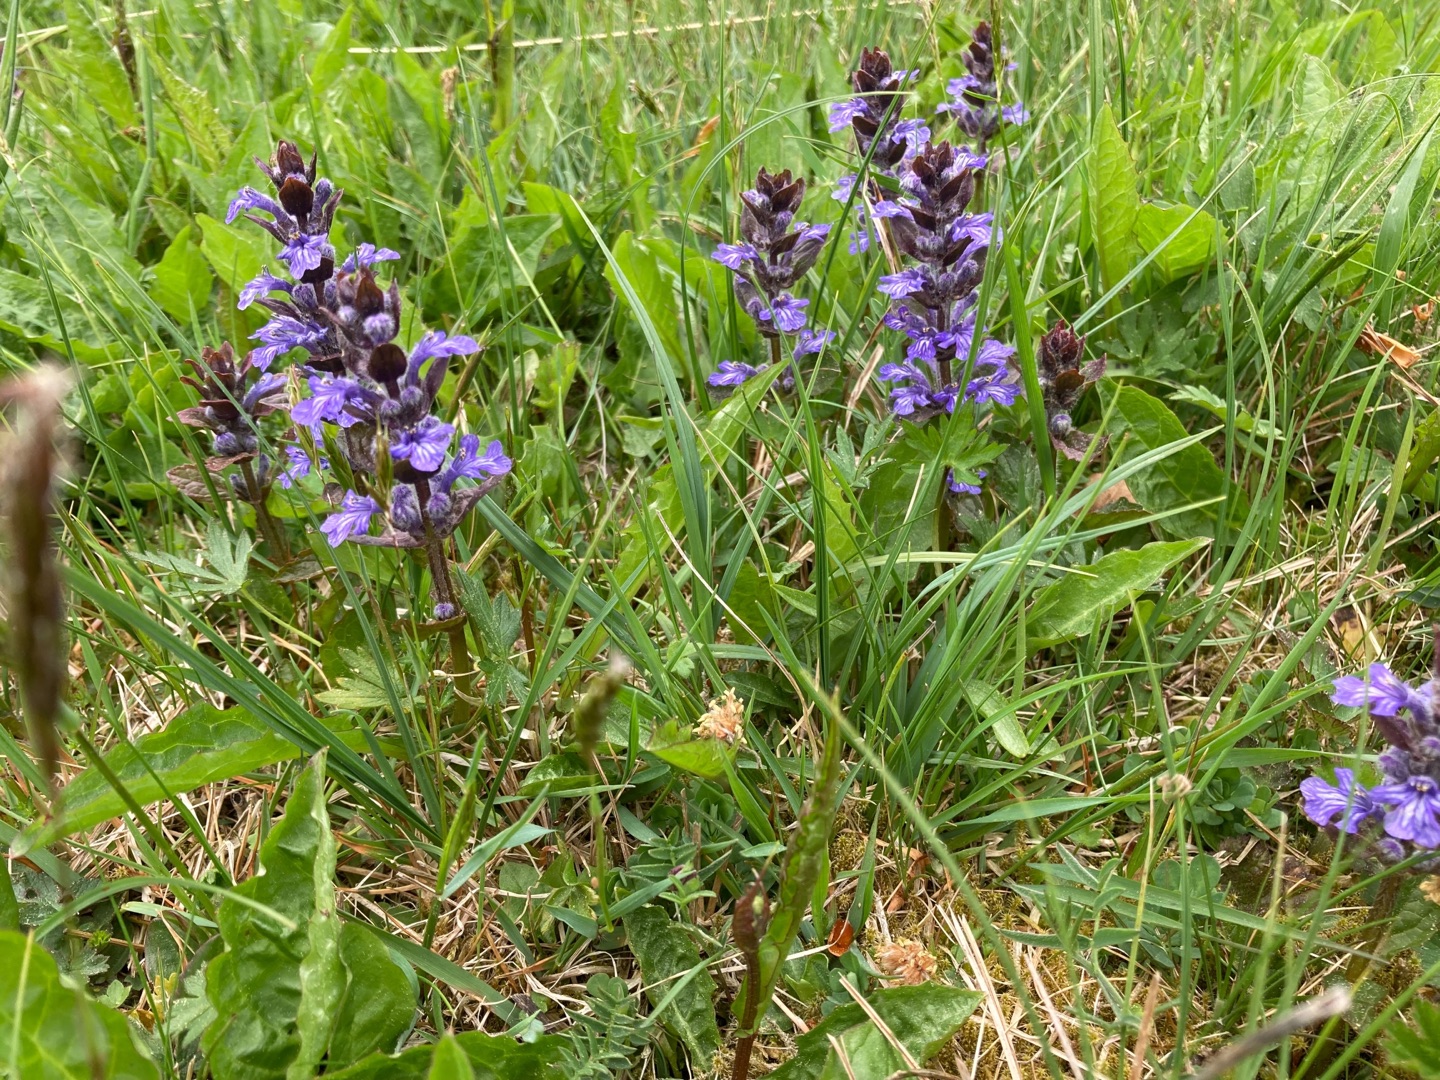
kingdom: Plantae
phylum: Tracheophyta
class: Magnoliopsida
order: Lamiales
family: Lamiaceae
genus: Ajuga
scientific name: Ajuga reptans
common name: Krybende læbeløs
